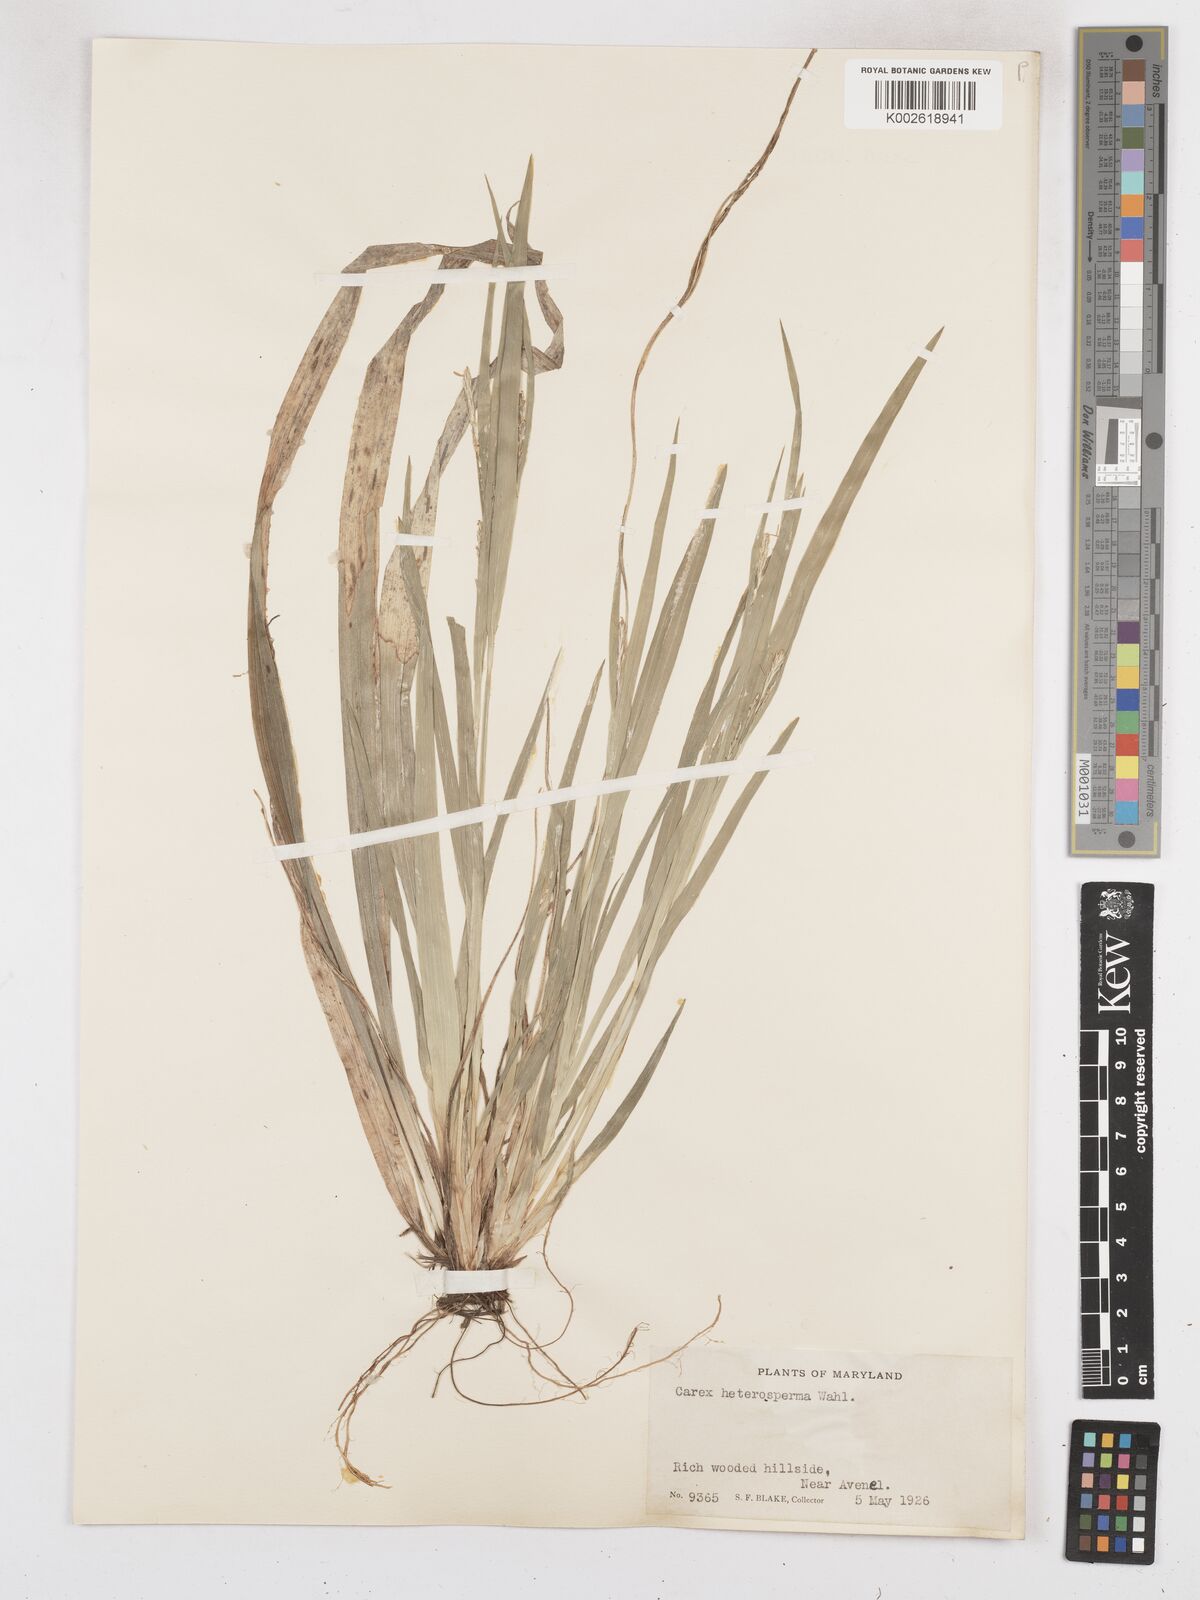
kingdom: Plantae
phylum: Tracheophyta
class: Liliopsida
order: Poales
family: Cyperaceae
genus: Carex
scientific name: Carex laxiflora
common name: Beech wood sedge
